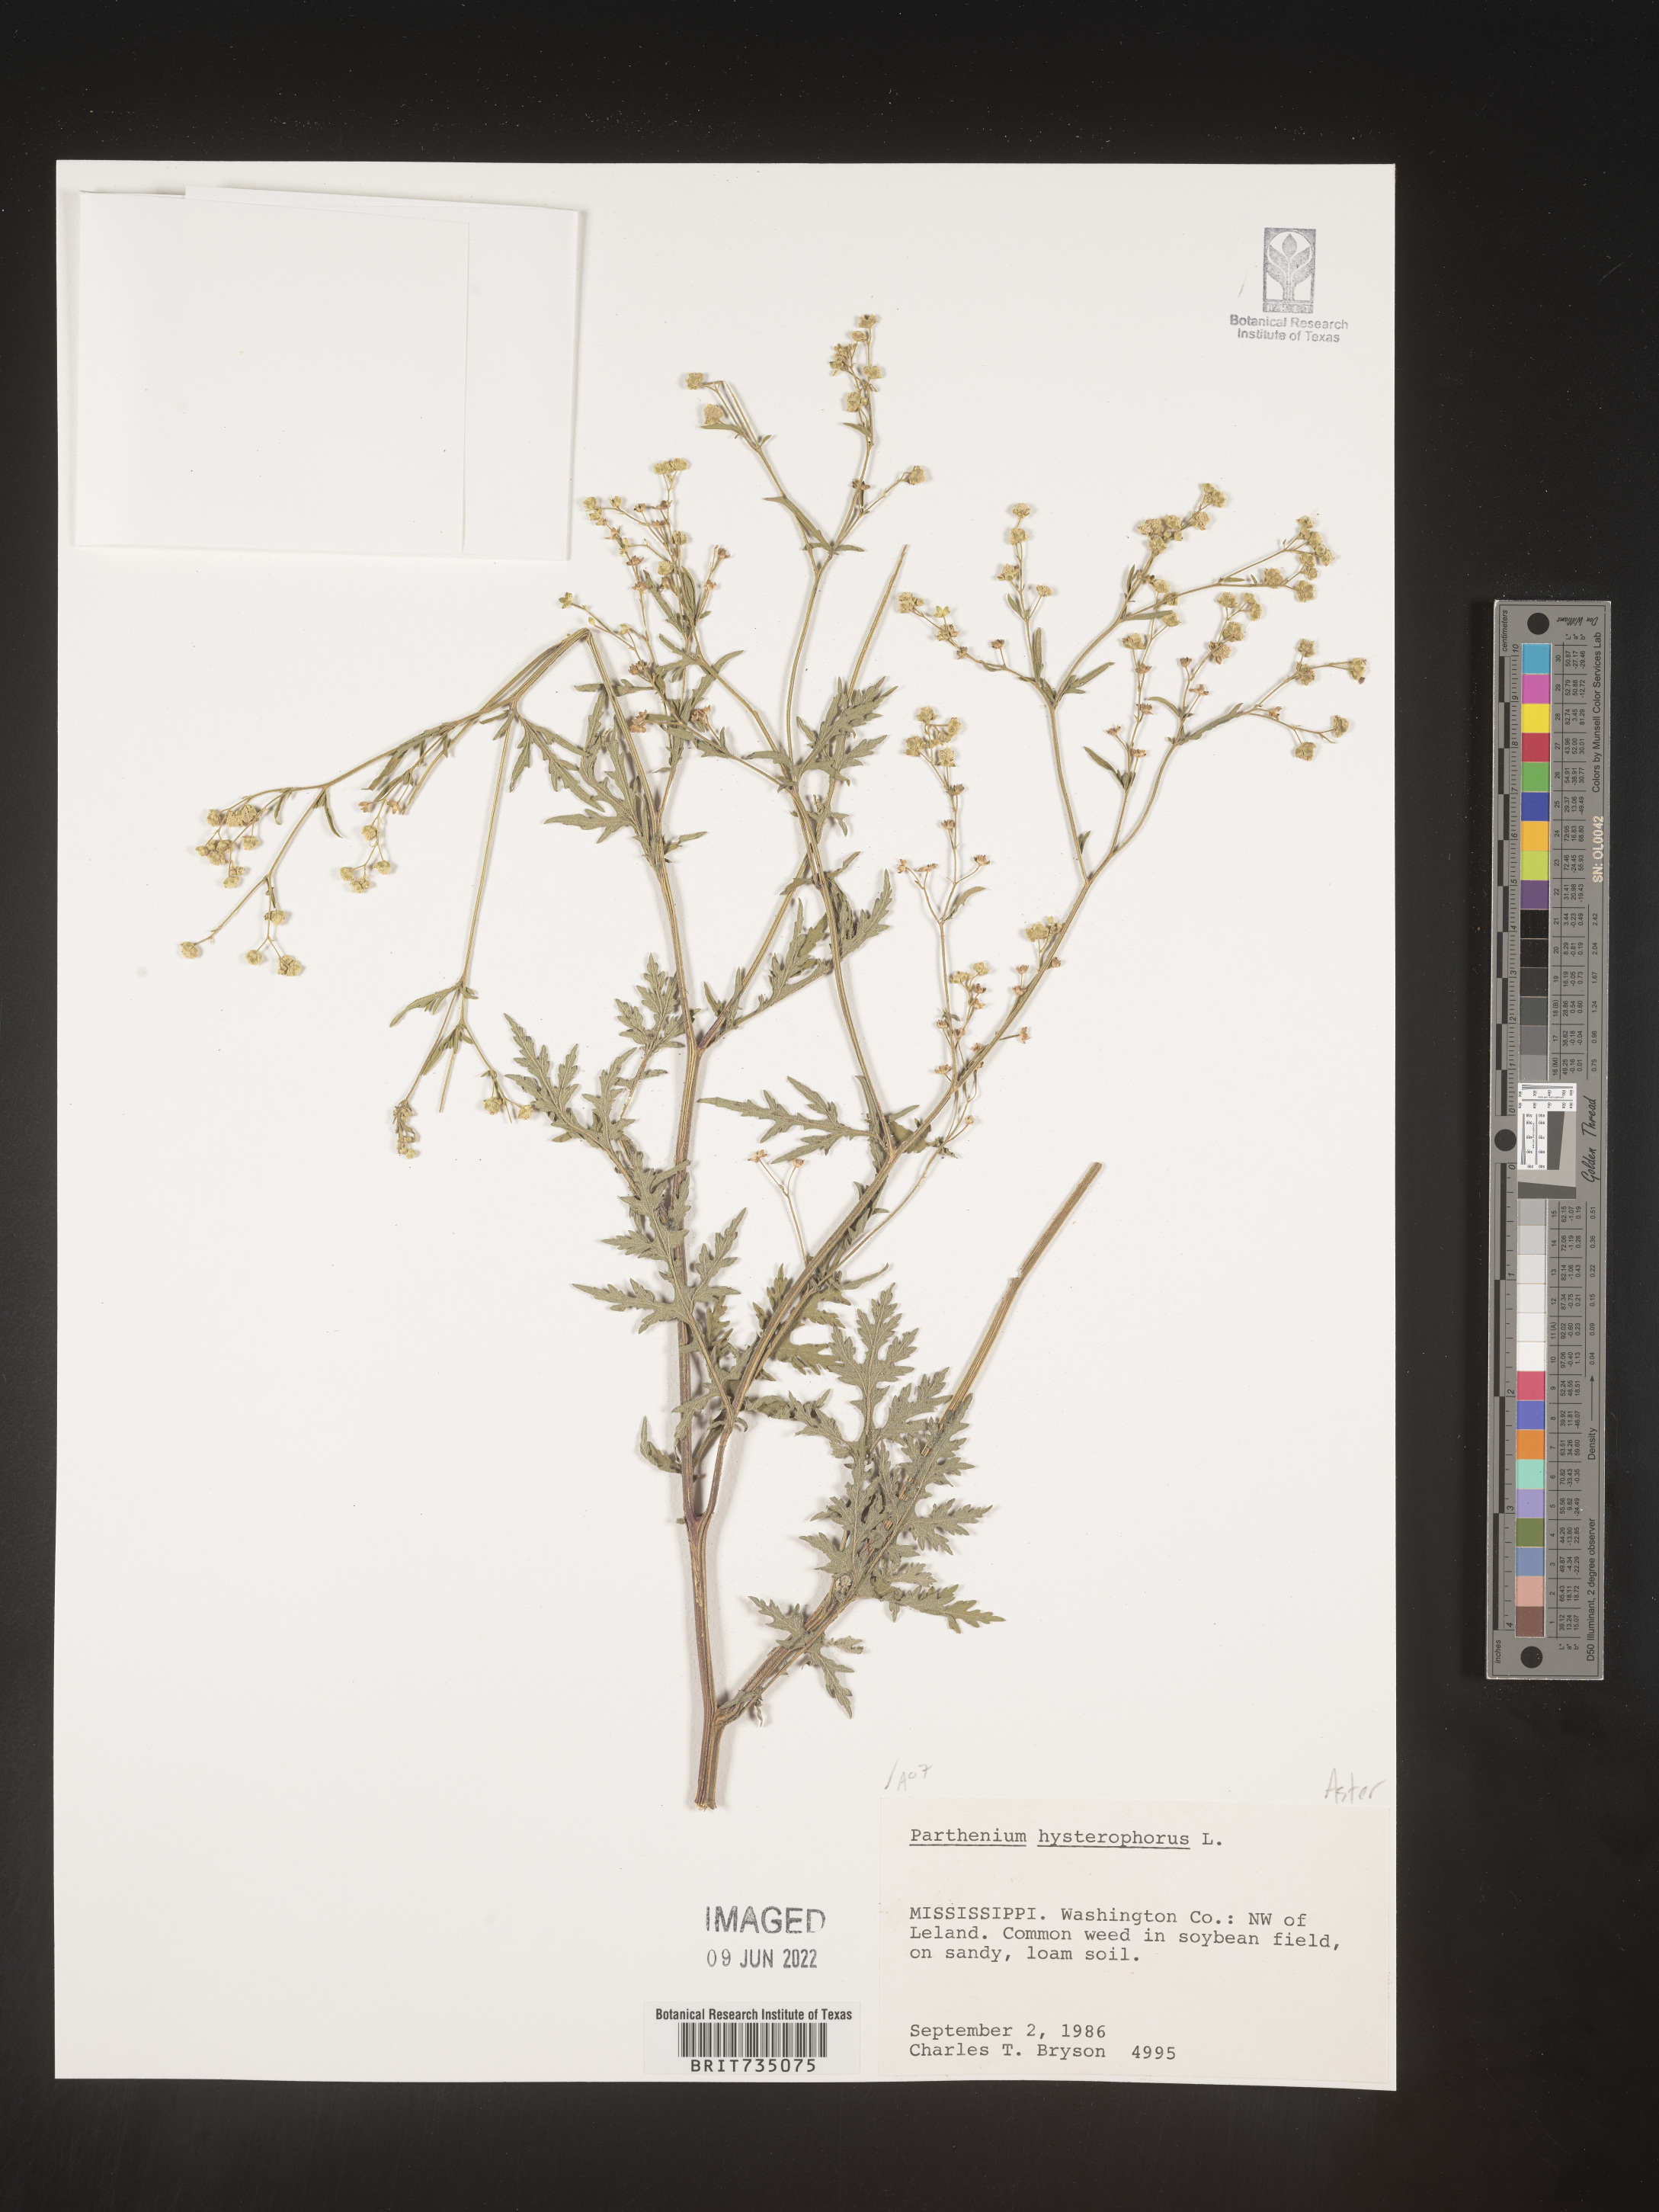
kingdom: Plantae
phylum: Tracheophyta
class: Magnoliopsida
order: Asterales
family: Asteraceae
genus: Parthenium
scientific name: Parthenium hysterophorus
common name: Santa maria feverfew
